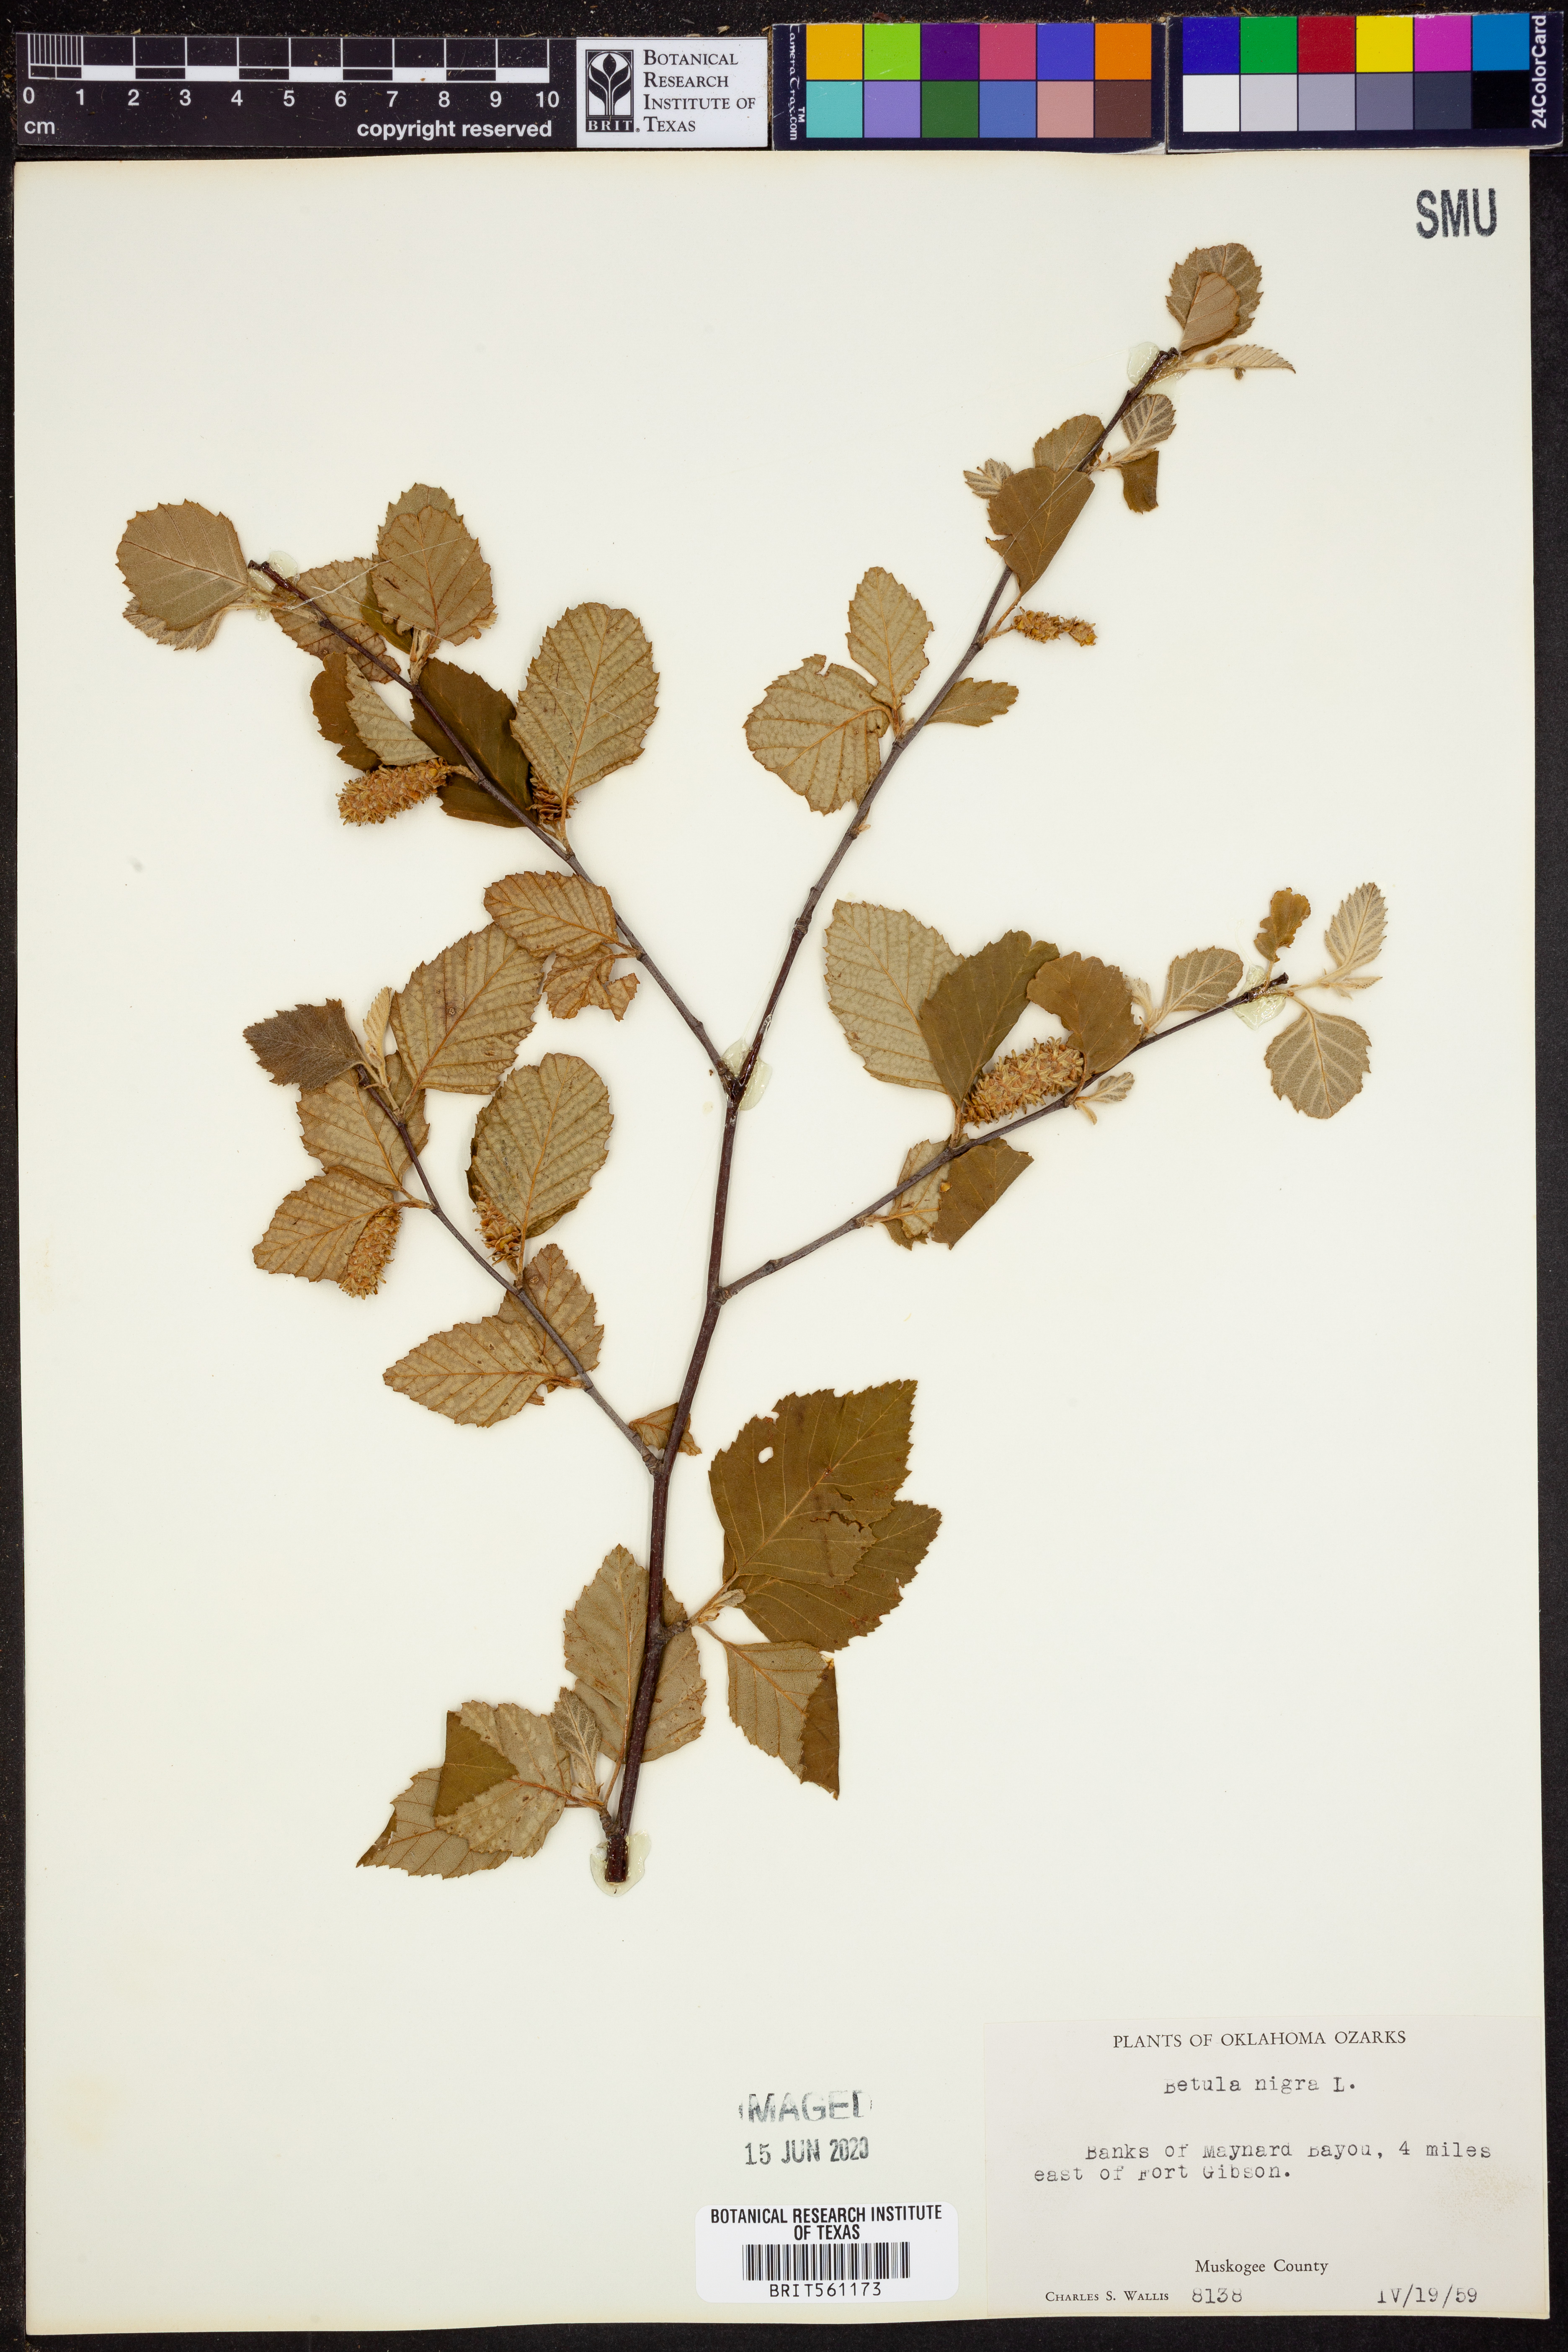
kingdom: Plantae
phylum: Tracheophyta
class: Magnoliopsida
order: Fagales
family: Betulaceae
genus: Betula
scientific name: Betula nigra
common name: Black birch
